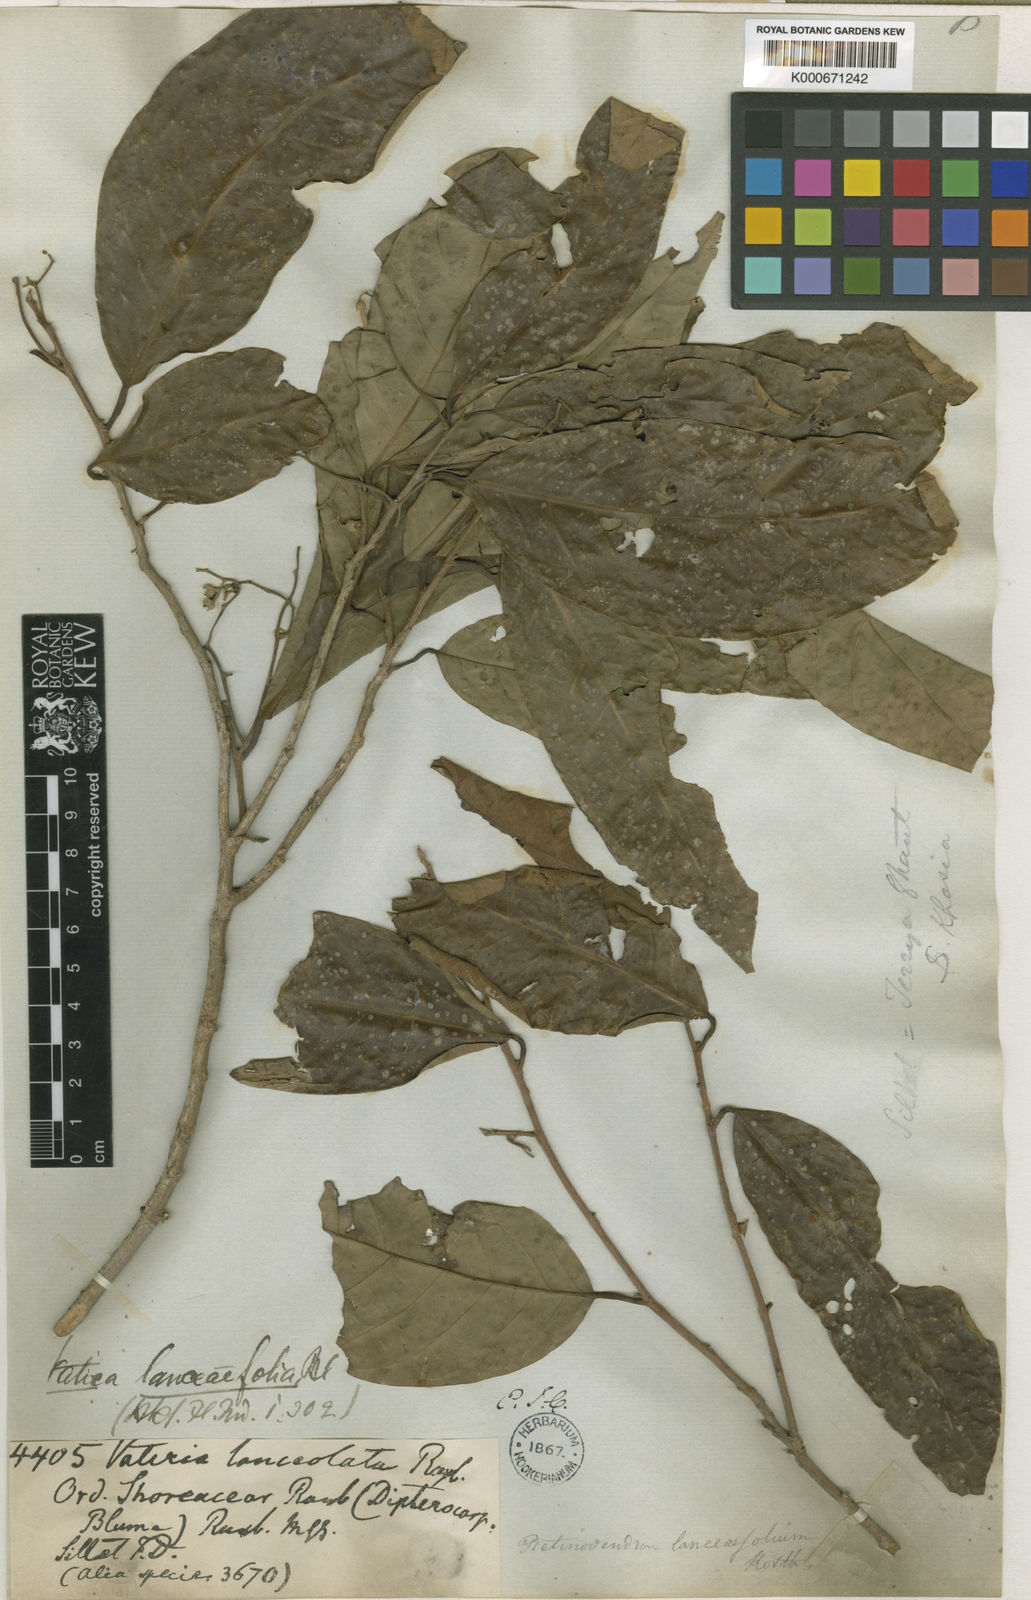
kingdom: Plantae
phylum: Tracheophyta
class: Magnoliopsida
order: Malvales
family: Dipterocarpaceae
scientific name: Dipterocarpaceae
